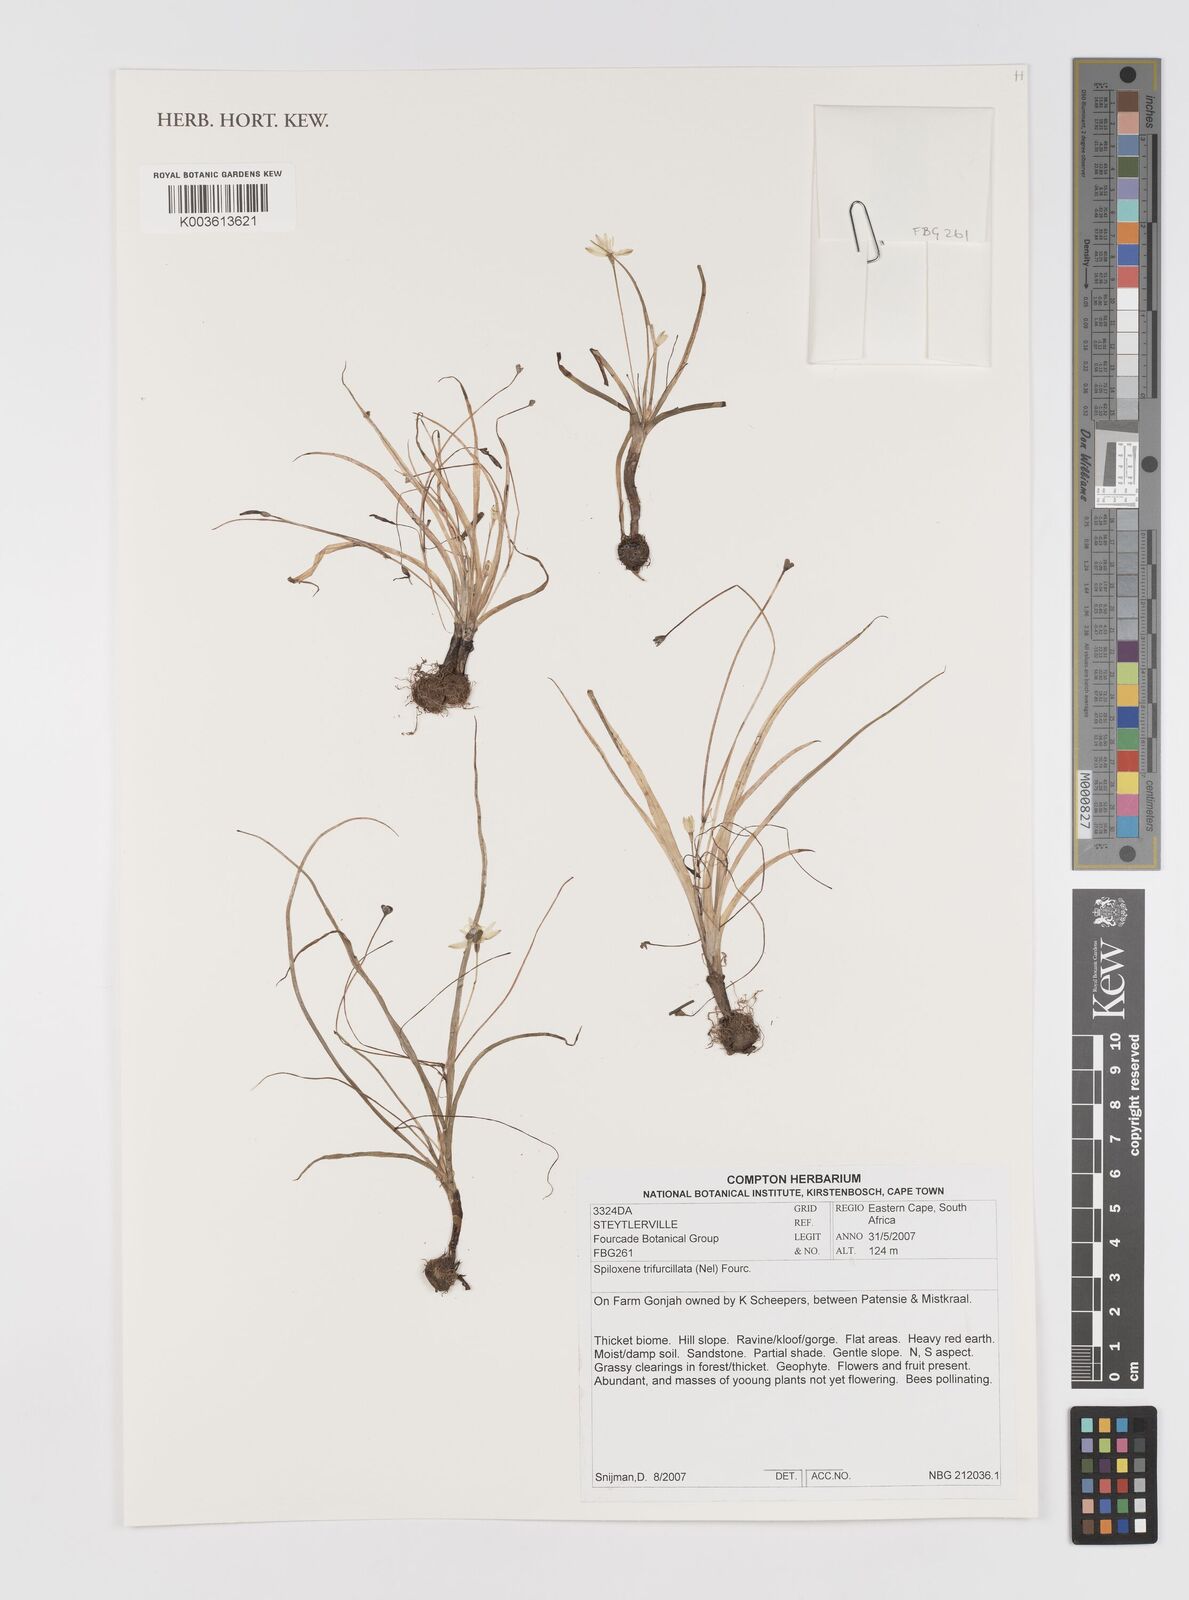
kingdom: Plantae
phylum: Tracheophyta
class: Liliopsida
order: Asparagales
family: Hypoxidaceae
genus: Pauridia
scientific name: Pauridia trifurcillata
